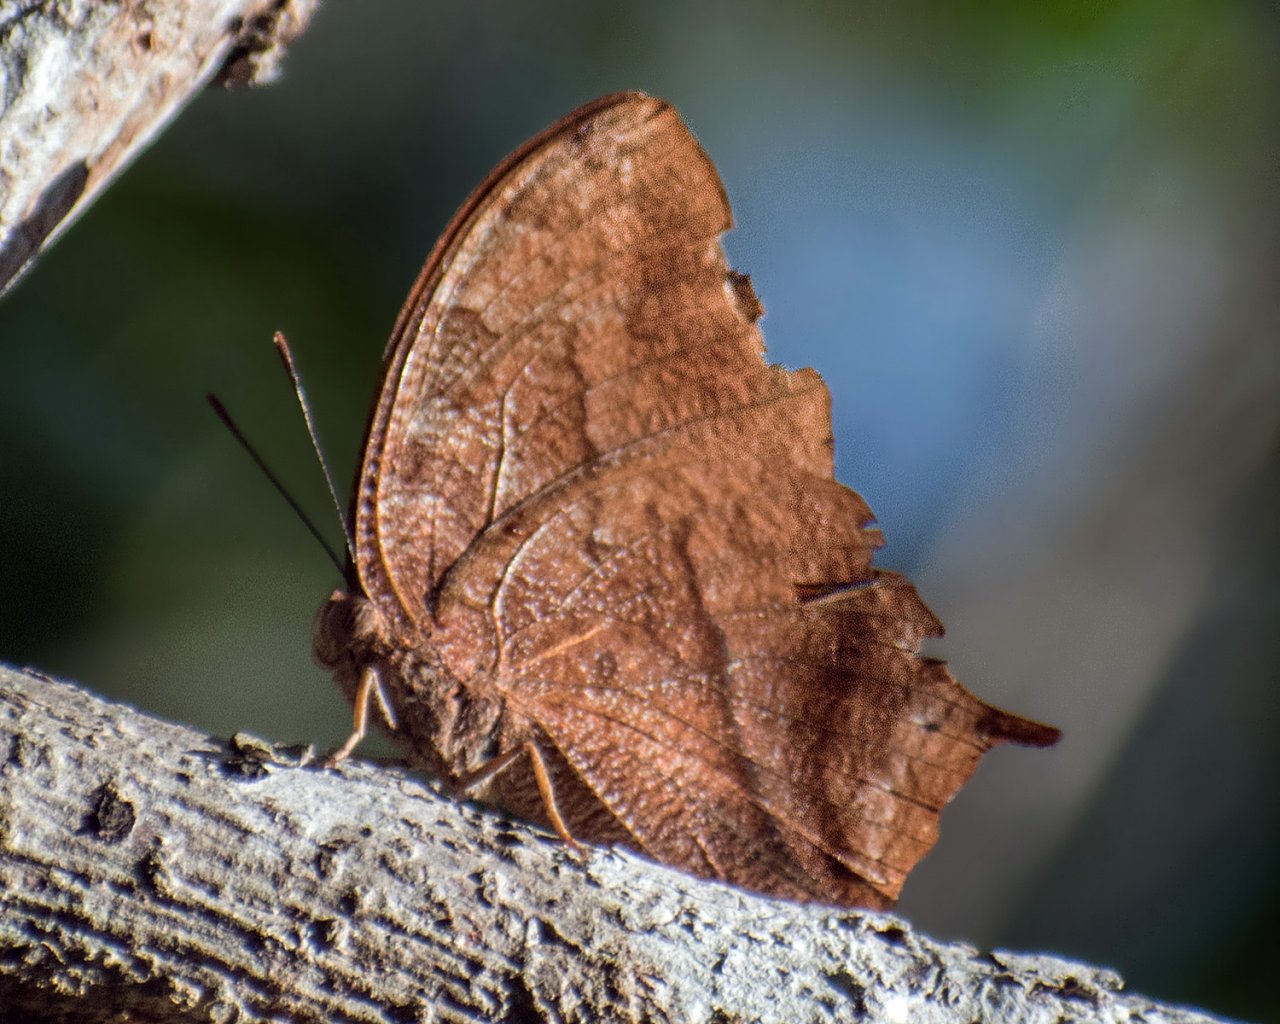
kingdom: Animalia
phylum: Arthropoda
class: Insecta
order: Lepidoptera
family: Nymphalidae
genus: Fountainea
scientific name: Fountainea
